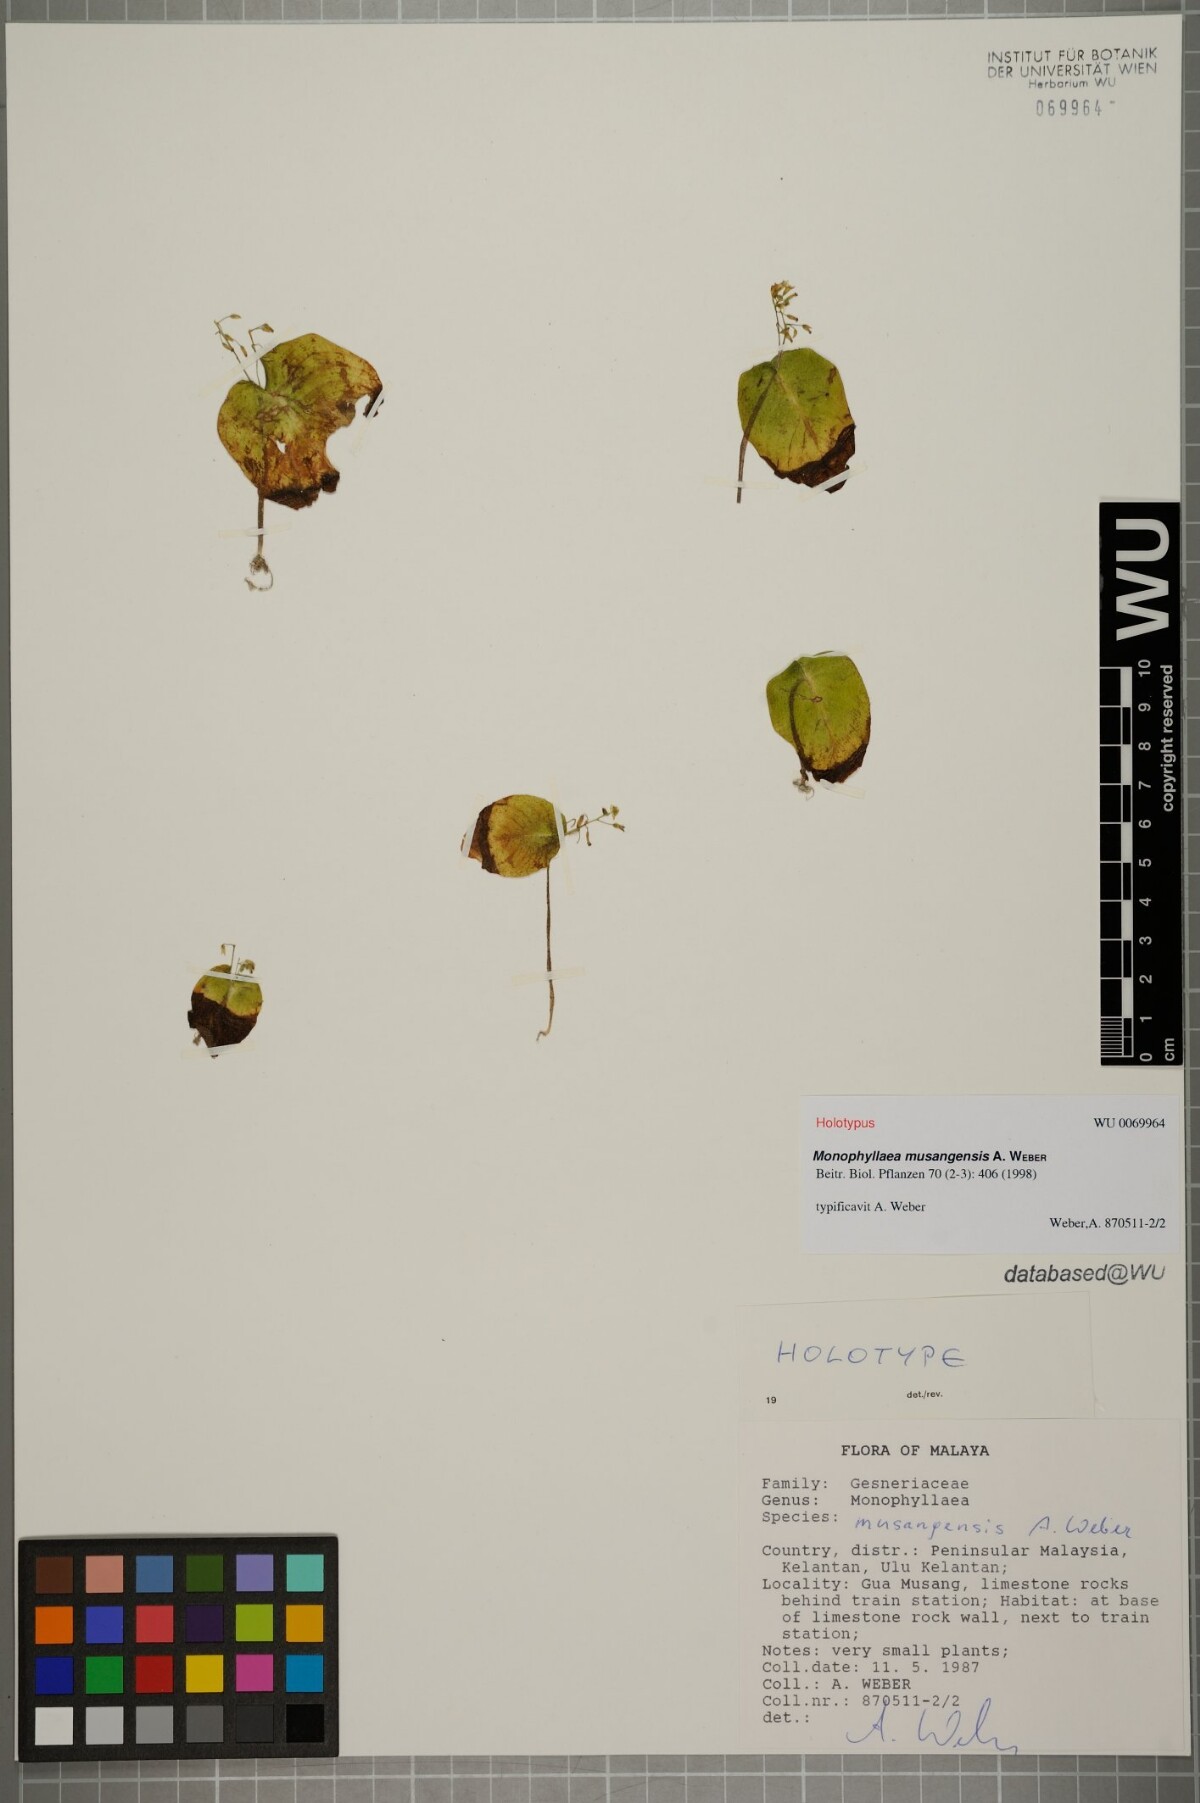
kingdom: Plantae
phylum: Tracheophyta
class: Magnoliopsida
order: Lamiales
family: Gesneriaceae
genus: Monophyllaea
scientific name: Monophyllaea musangensis
